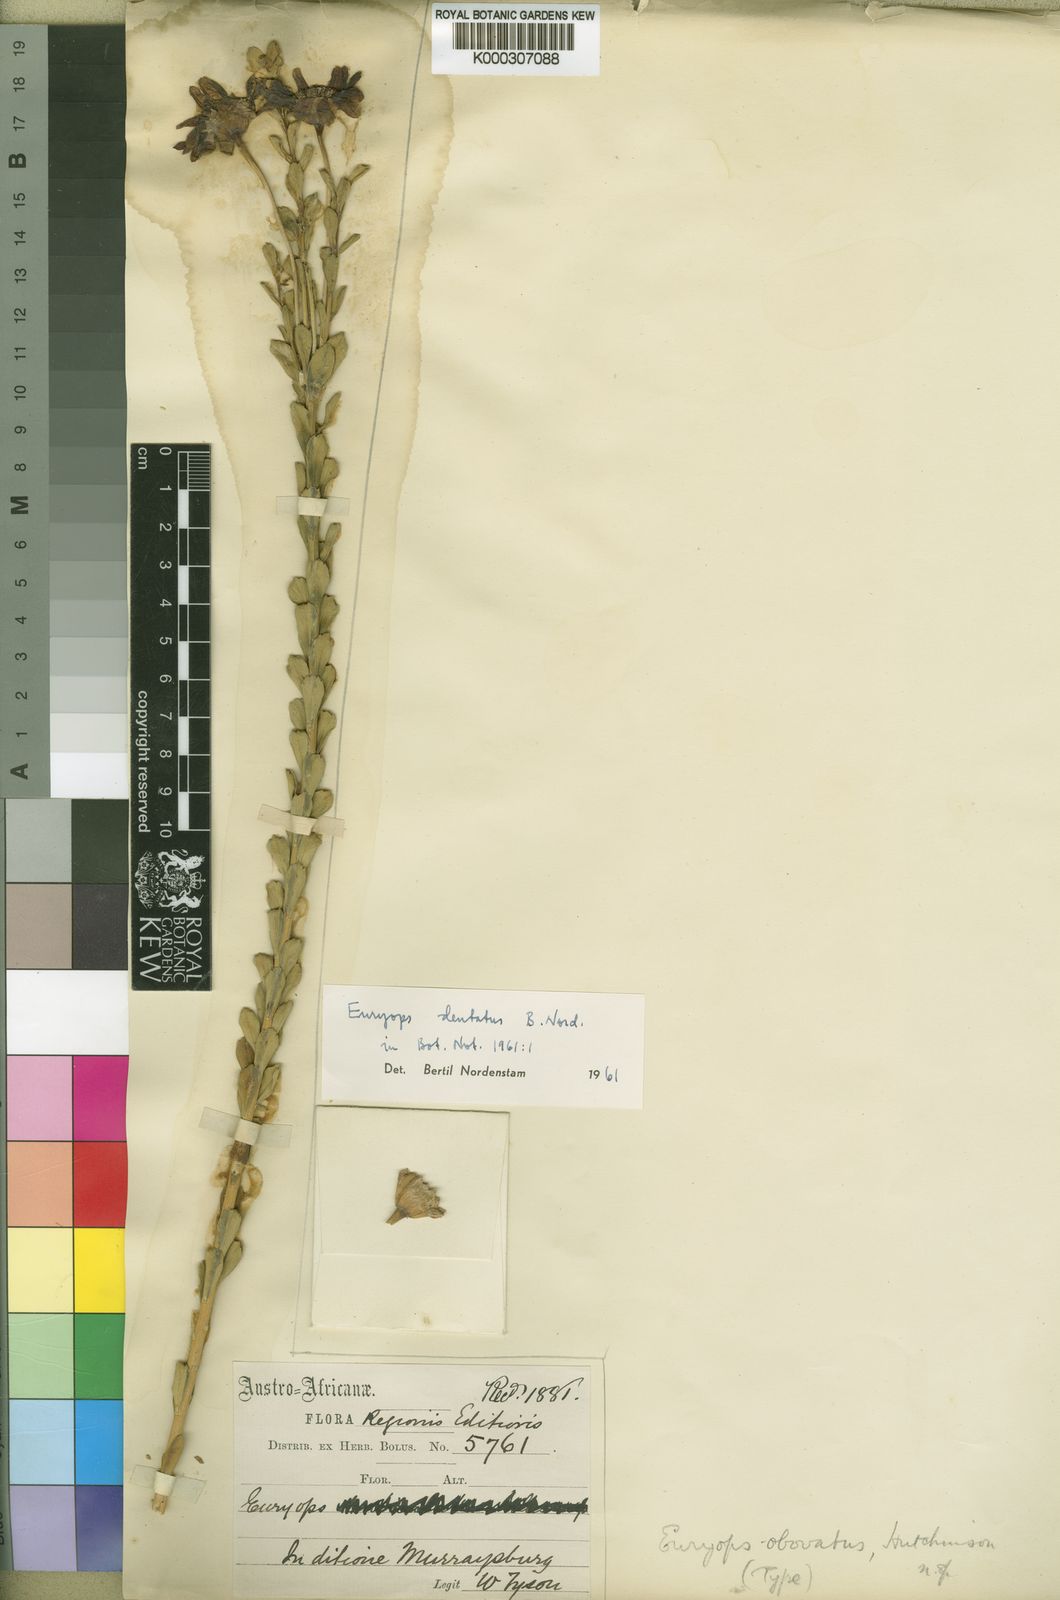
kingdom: Plantae
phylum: Tracheophyta
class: Magnoliopsida
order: Asterales
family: Asteraceae
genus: Euryops
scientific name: Euryops dentatus
